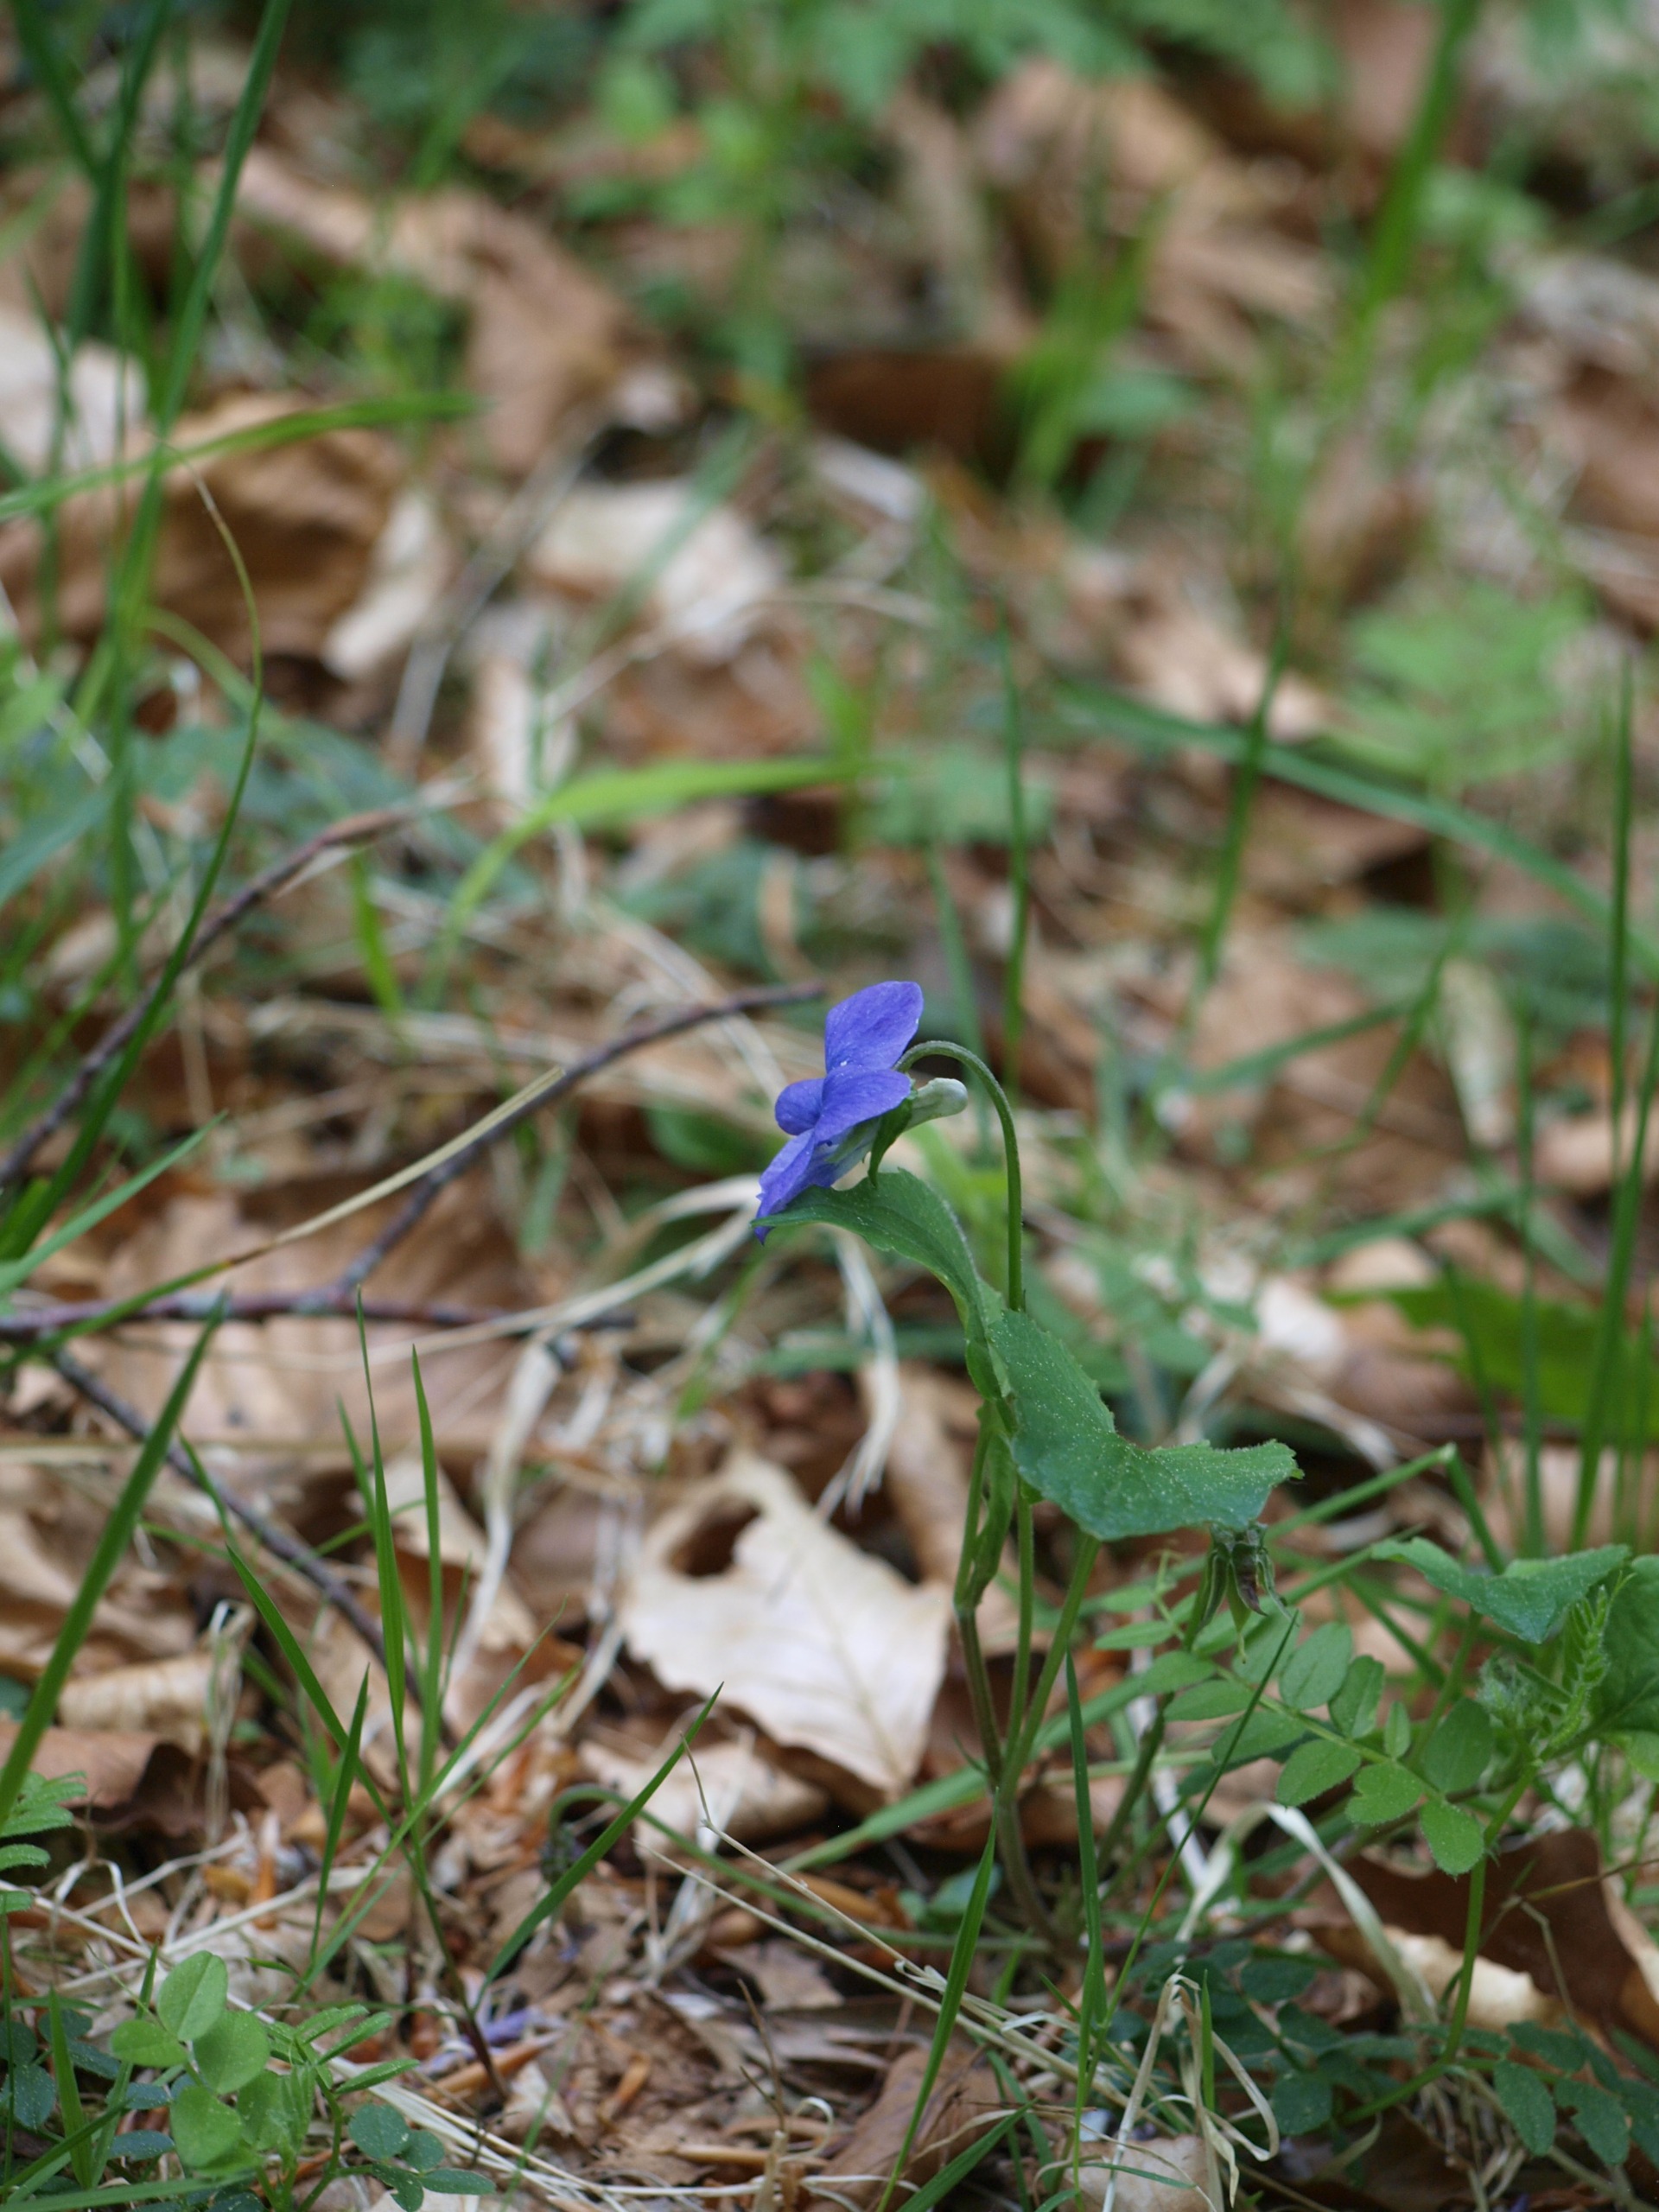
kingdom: Plantae
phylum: Tracheophyta
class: Magnoliopsida
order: Malpighiales
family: Violaceae
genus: Viola
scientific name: Viola riviniana
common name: Krat-viol
